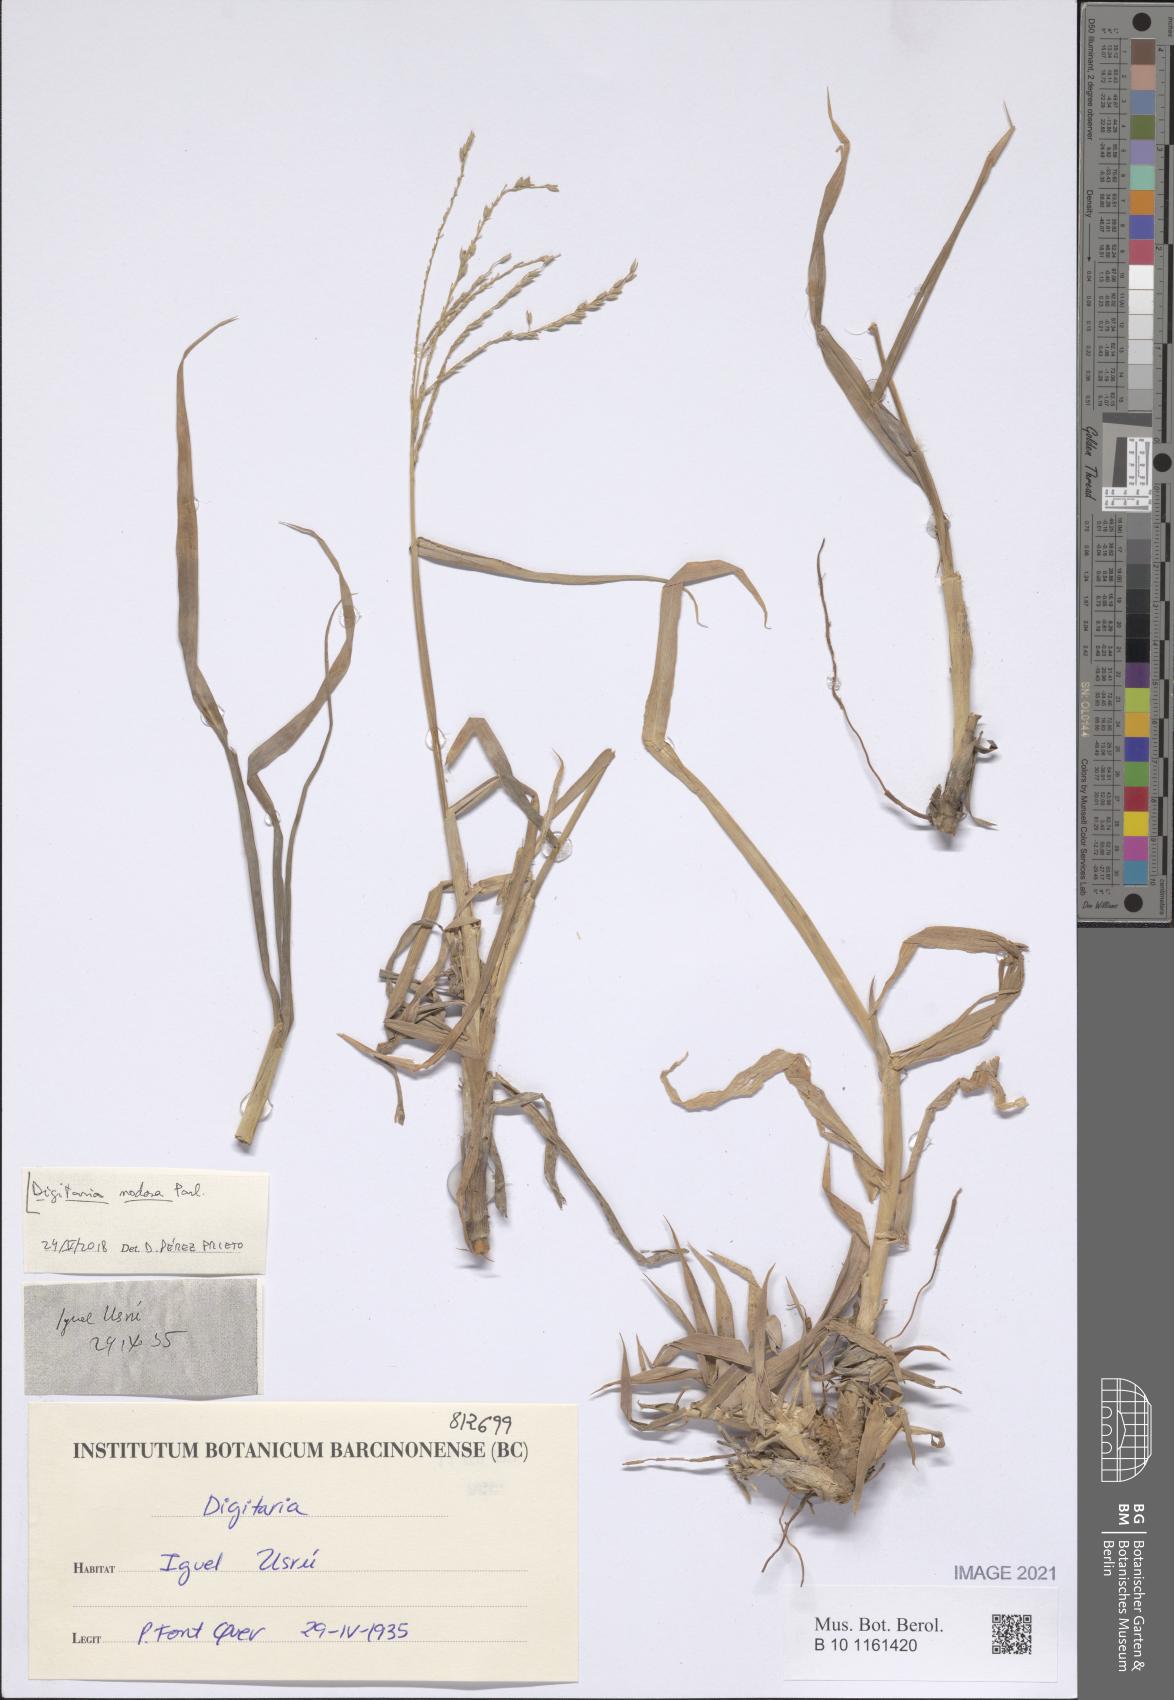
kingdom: Plantae
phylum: Tracheophyta
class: Liliopsida
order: Poales
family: Poaceae
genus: Digitaria
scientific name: Digitaria nodosa
